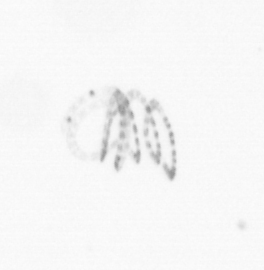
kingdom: Chromista
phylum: Ochrophyta
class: Bacillariophyceae
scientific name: Bacillariophyceae
